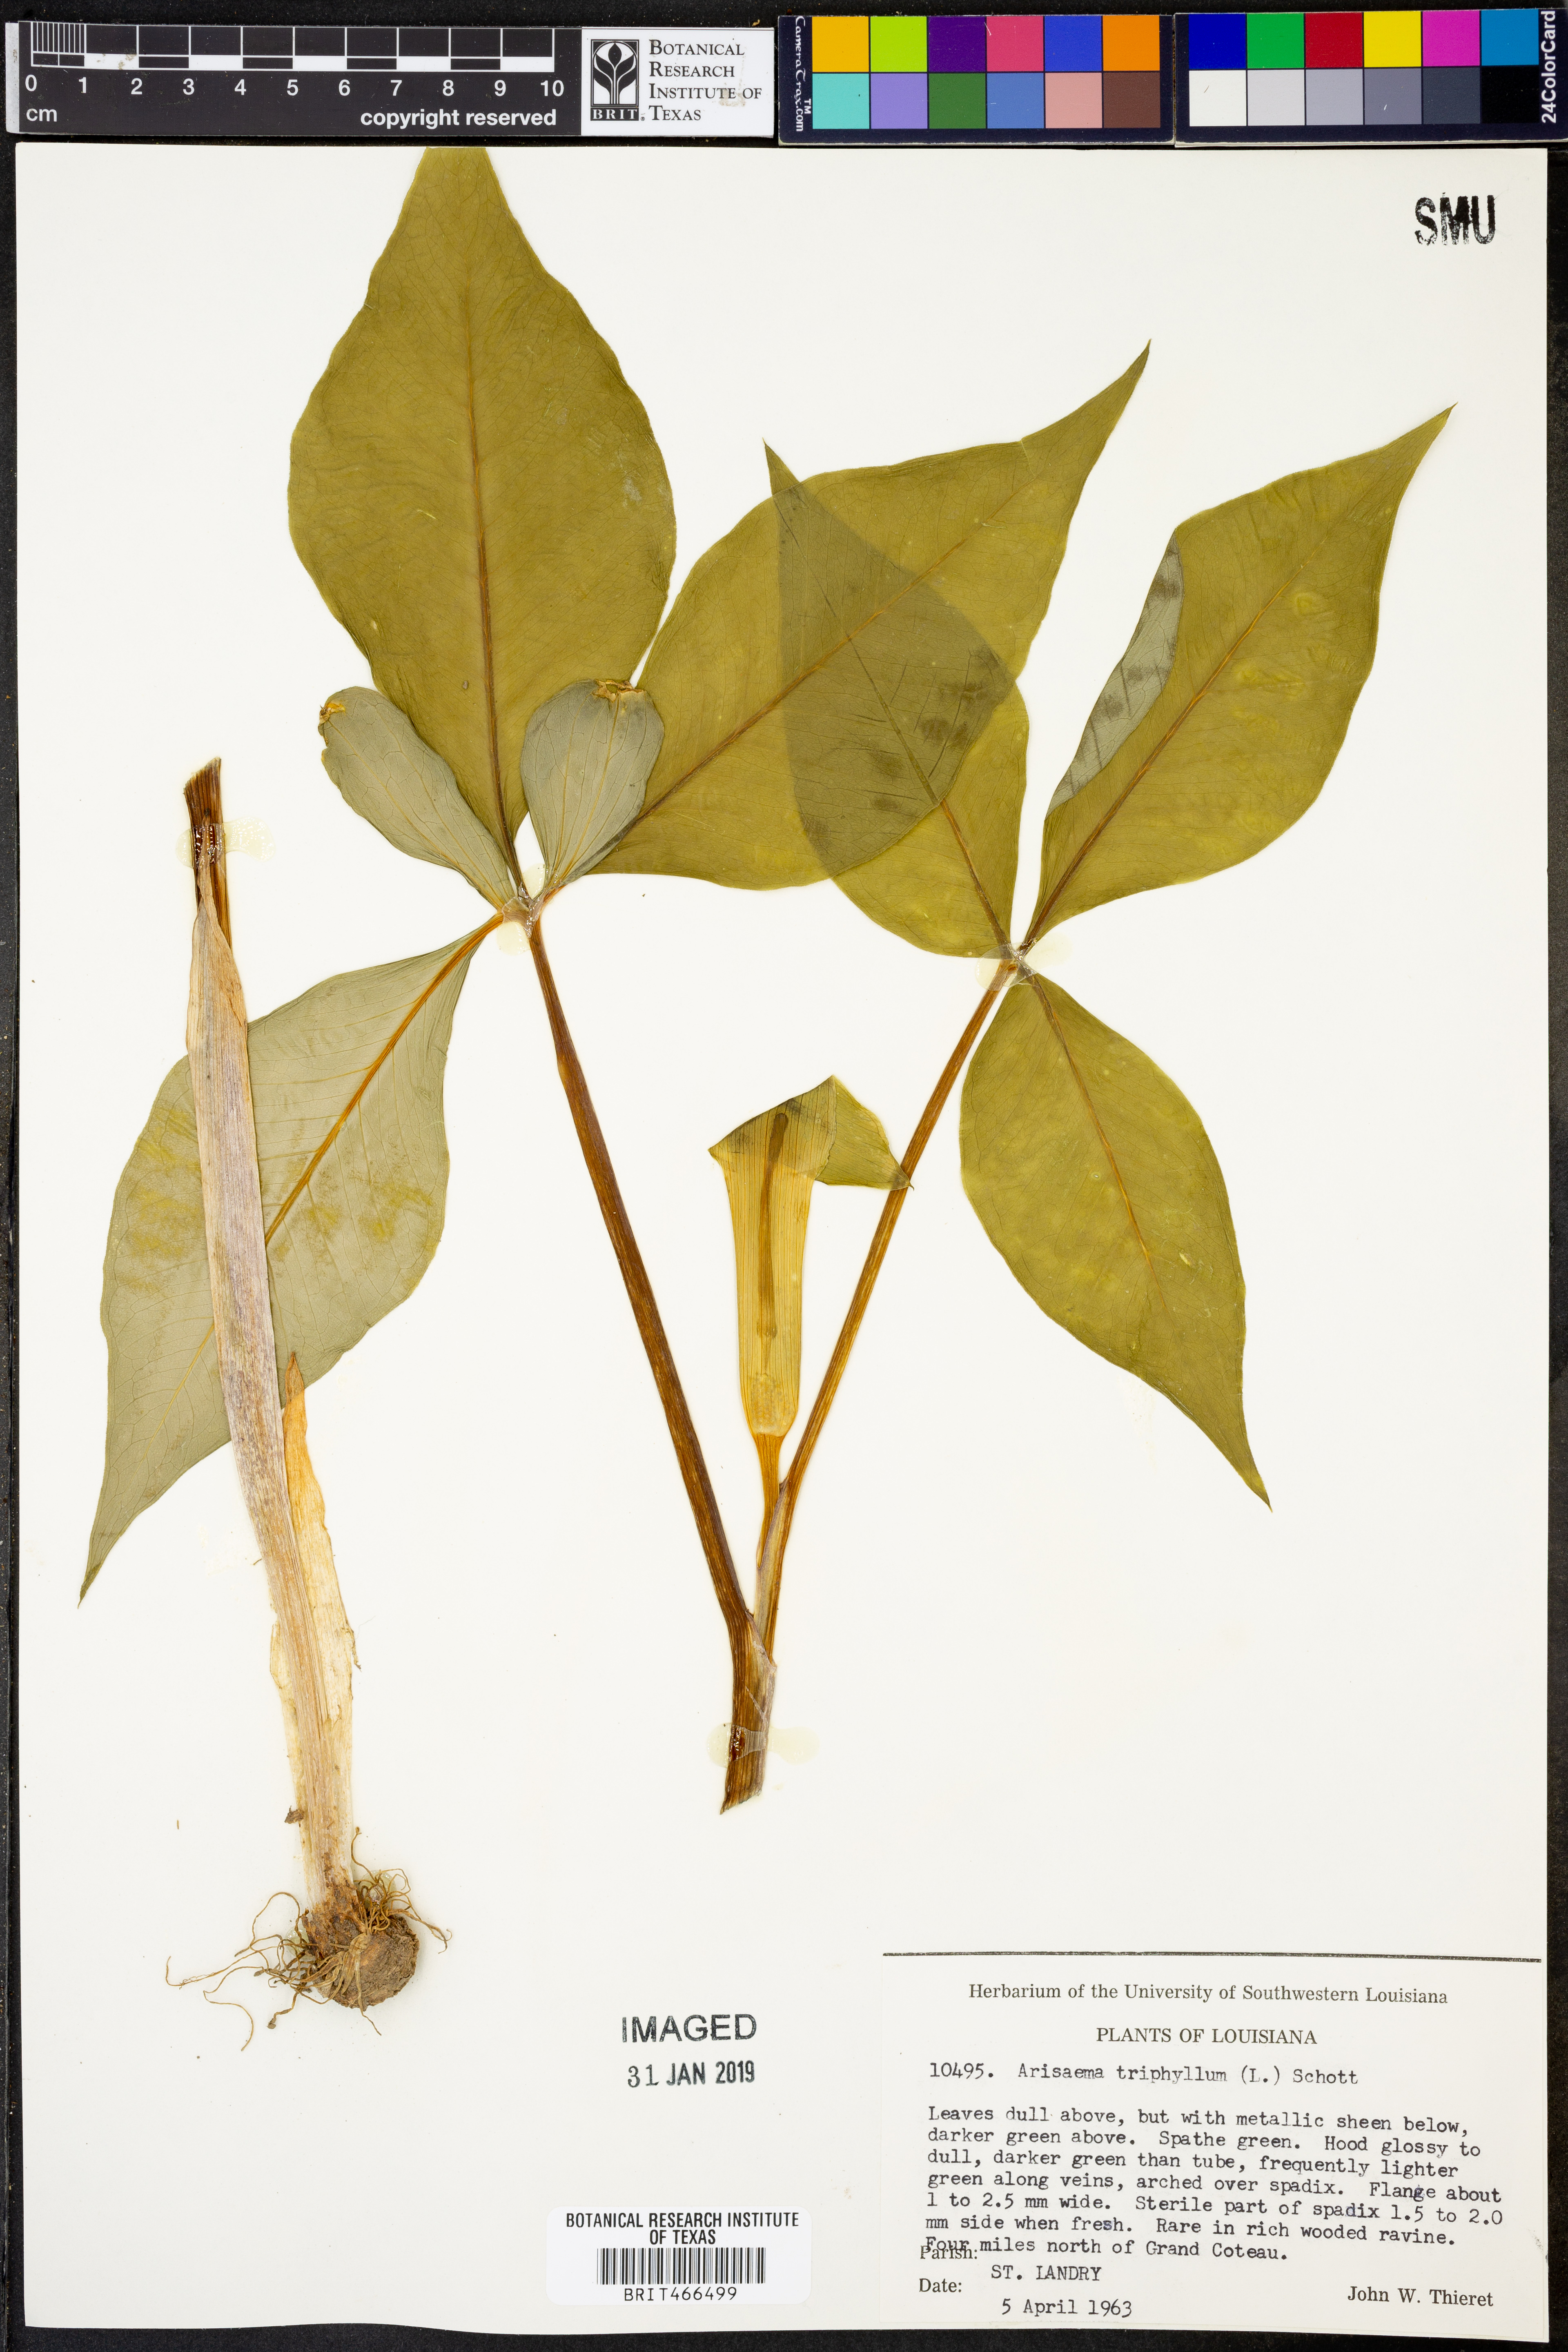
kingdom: Plantae
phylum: Tracheophyta
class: Liliopsida
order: Alismatales
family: Araceae
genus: Arisaema
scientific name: Arisaema triphyllum
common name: Jack-in-the-pulpit
